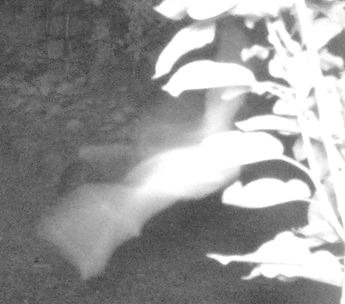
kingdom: Animalia
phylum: Chordata
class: Mammalia
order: Chiroptera
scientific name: Chiroptera
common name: Flagermus
